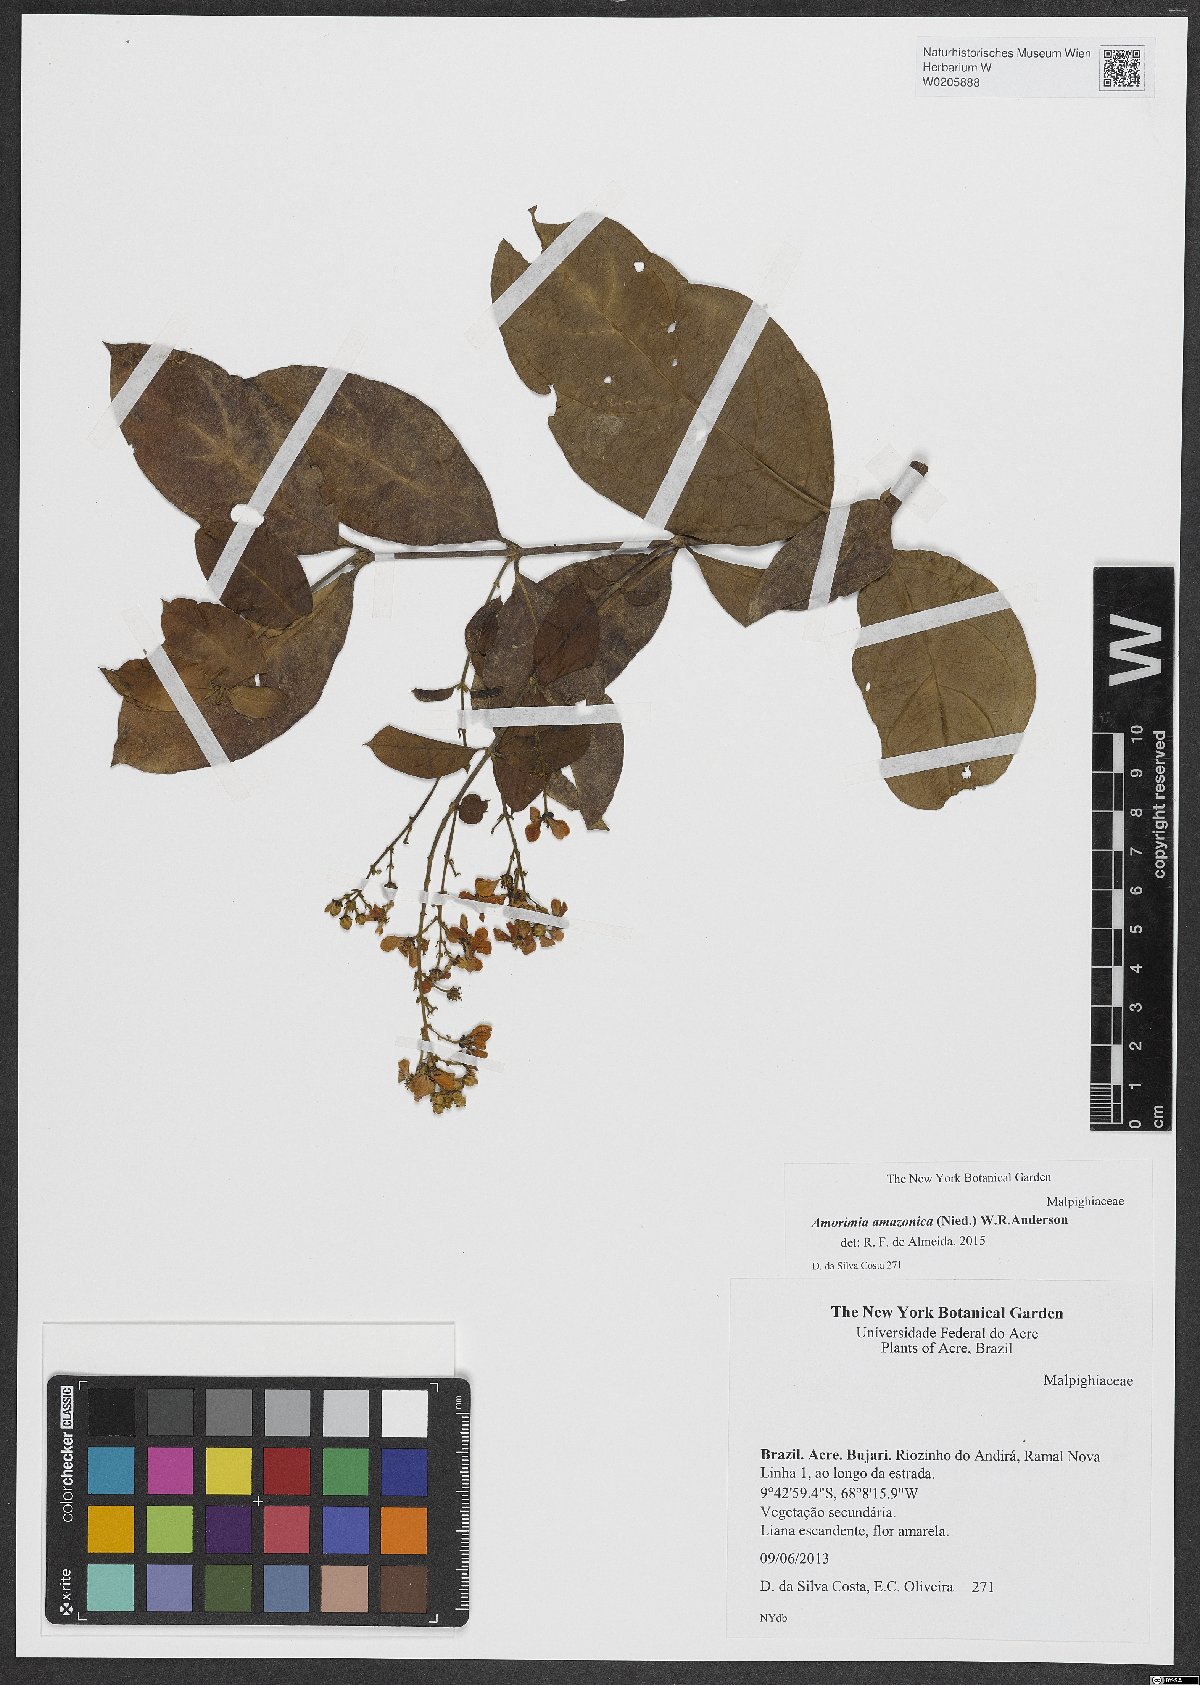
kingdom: Plantae
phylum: Tracheophyta
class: Magnoliopsida
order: Malpighiales
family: Malpighiaceae
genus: Amorimia
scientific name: Amorimia amazonica
